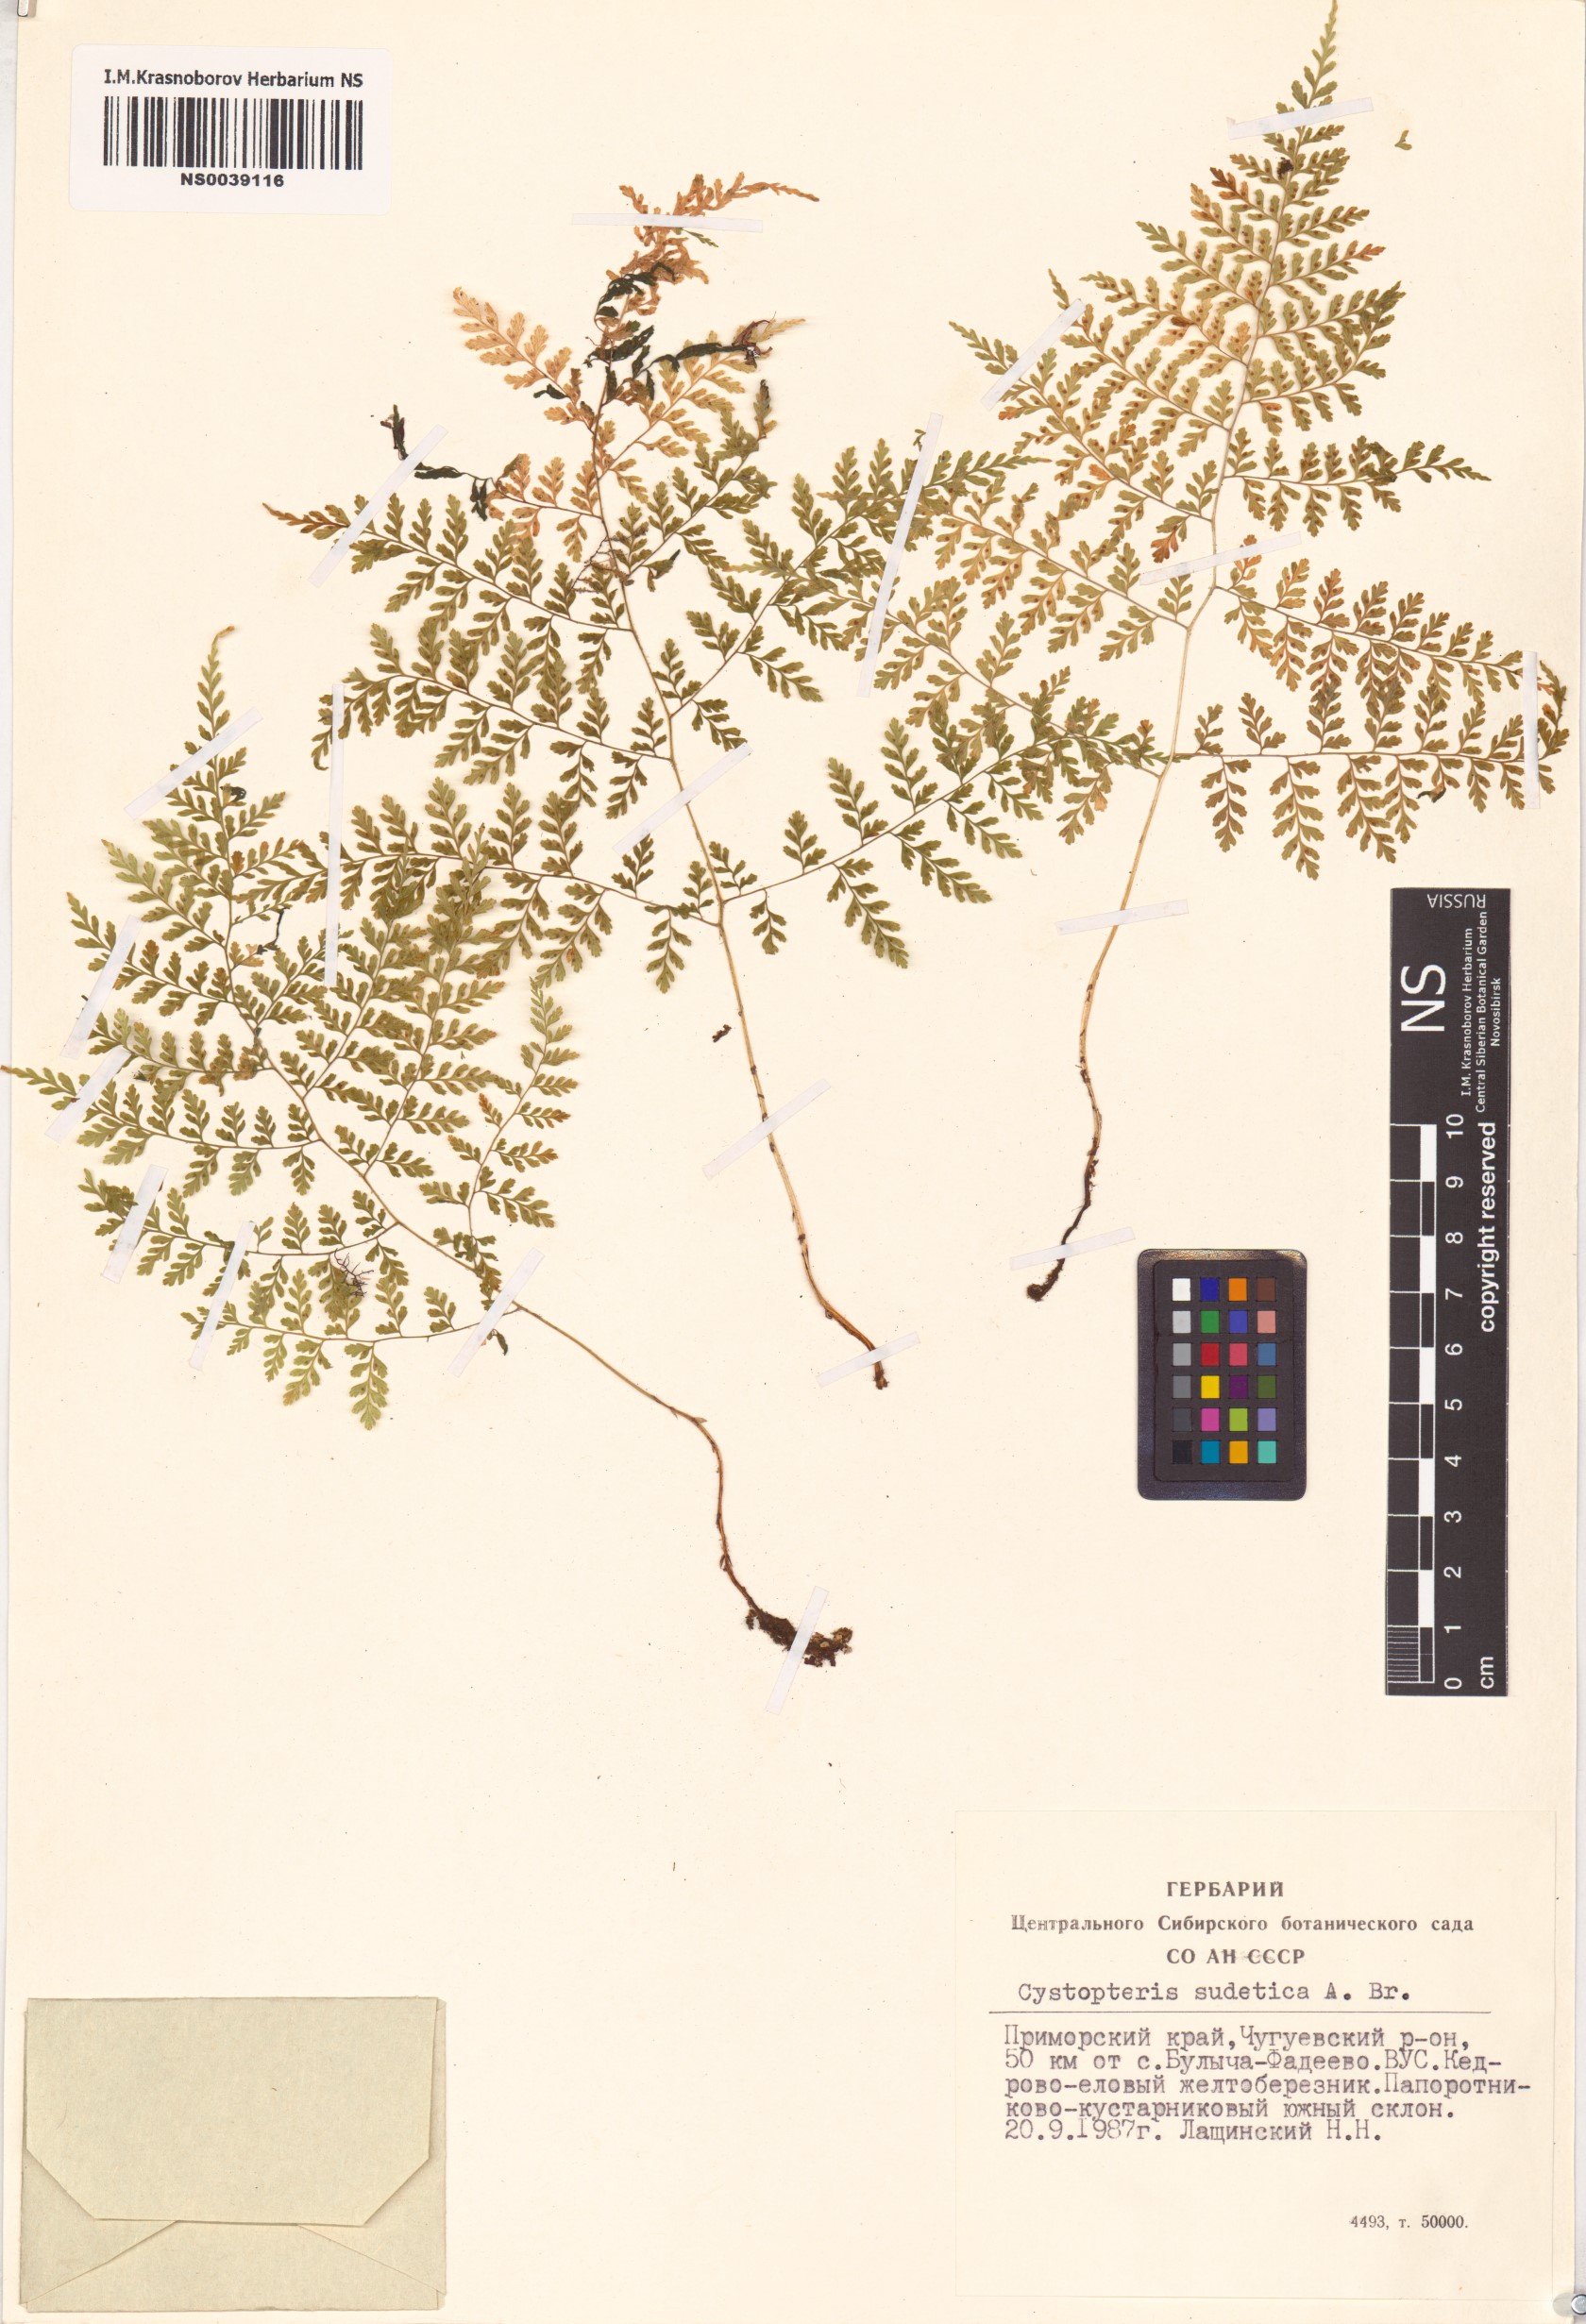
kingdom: Plantae
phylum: Tracheophyta
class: Polypodiopsida
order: Polypodiales
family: Cystopteridaceae
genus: Cystopteris
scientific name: Cystopteris sudetica
